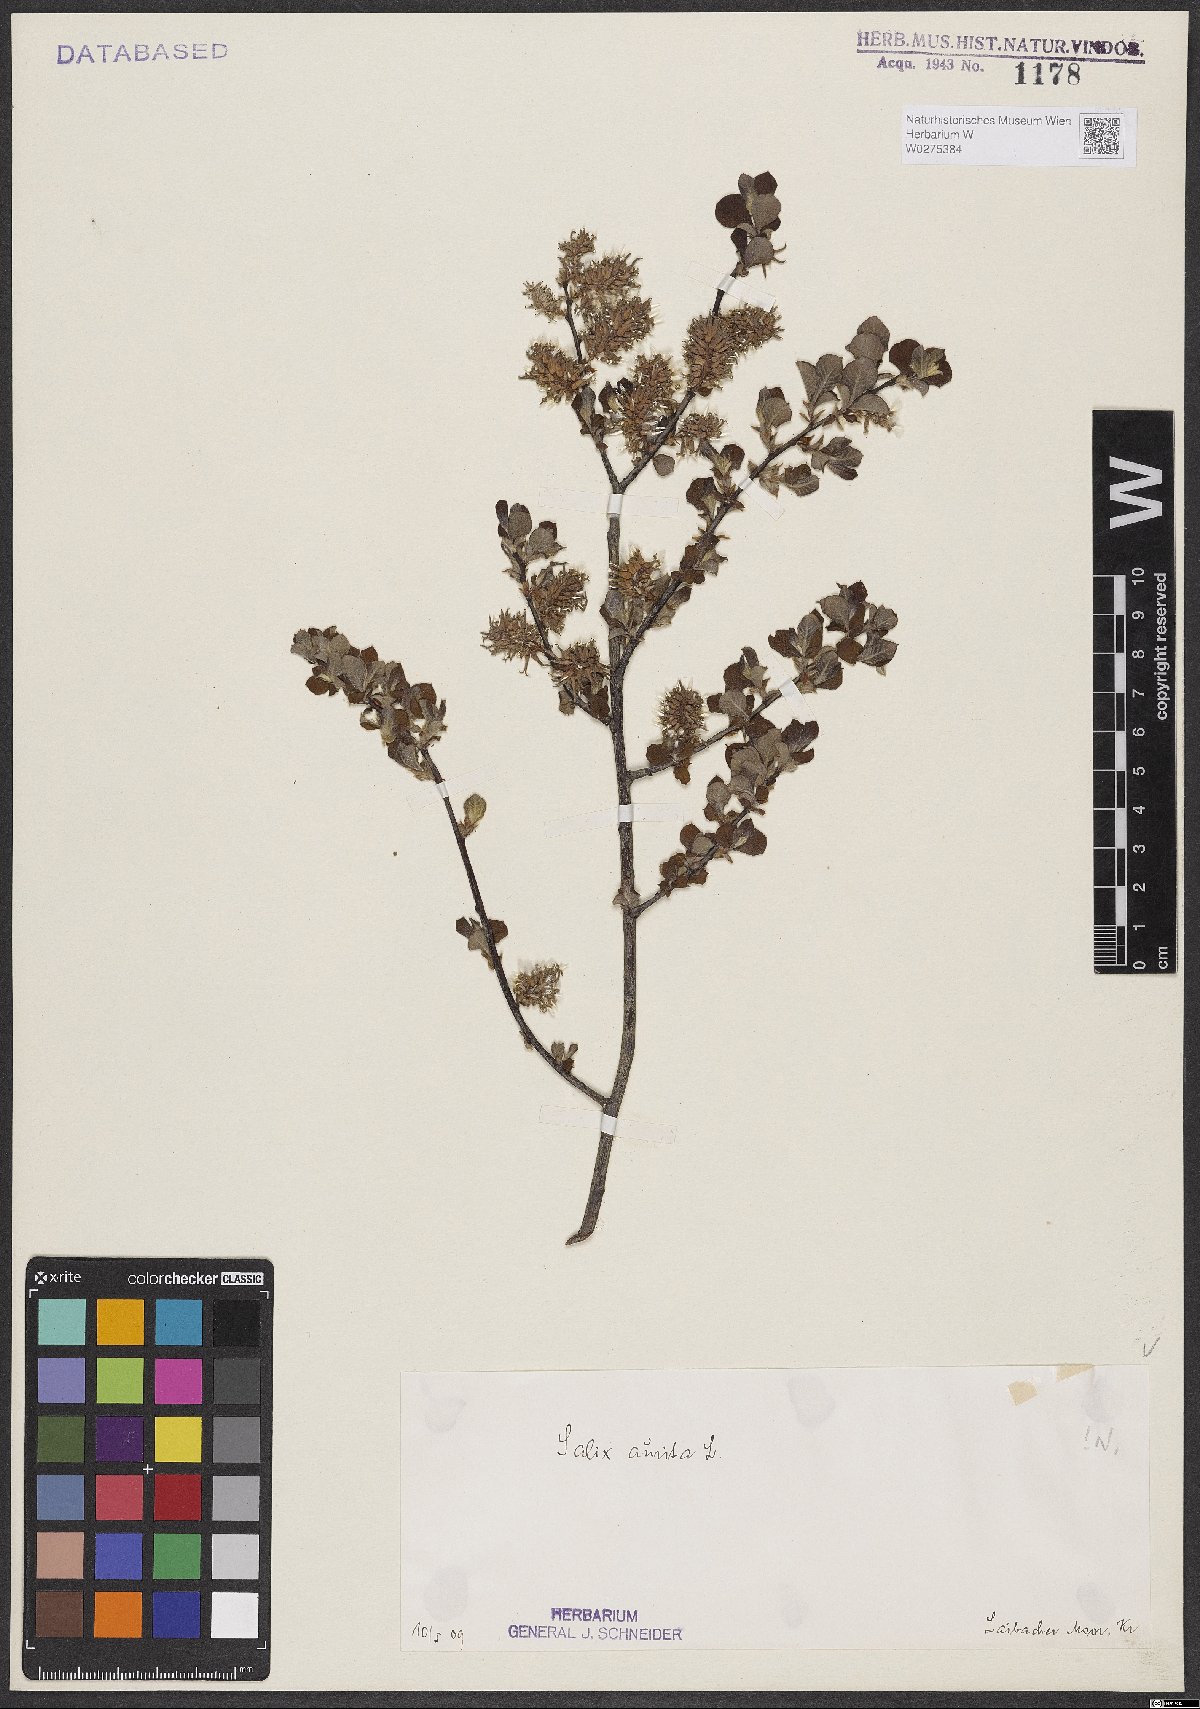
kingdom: Plantae
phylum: Tracheophyta
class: Magnoliopsida
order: Malpighiales
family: Salicaceae
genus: Salix
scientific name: Salix aurita
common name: Eared willow
